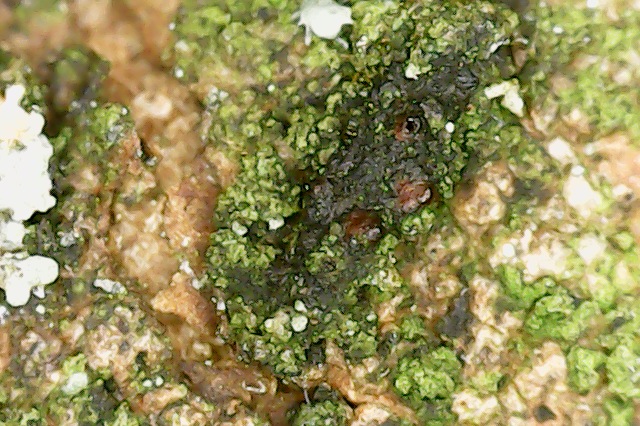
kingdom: Fungi
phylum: Ascomycota
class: Sordariomycetes
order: Hypocreales
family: Nectriaceae
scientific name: Nectriaceae
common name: cinnobersvampfamilien
